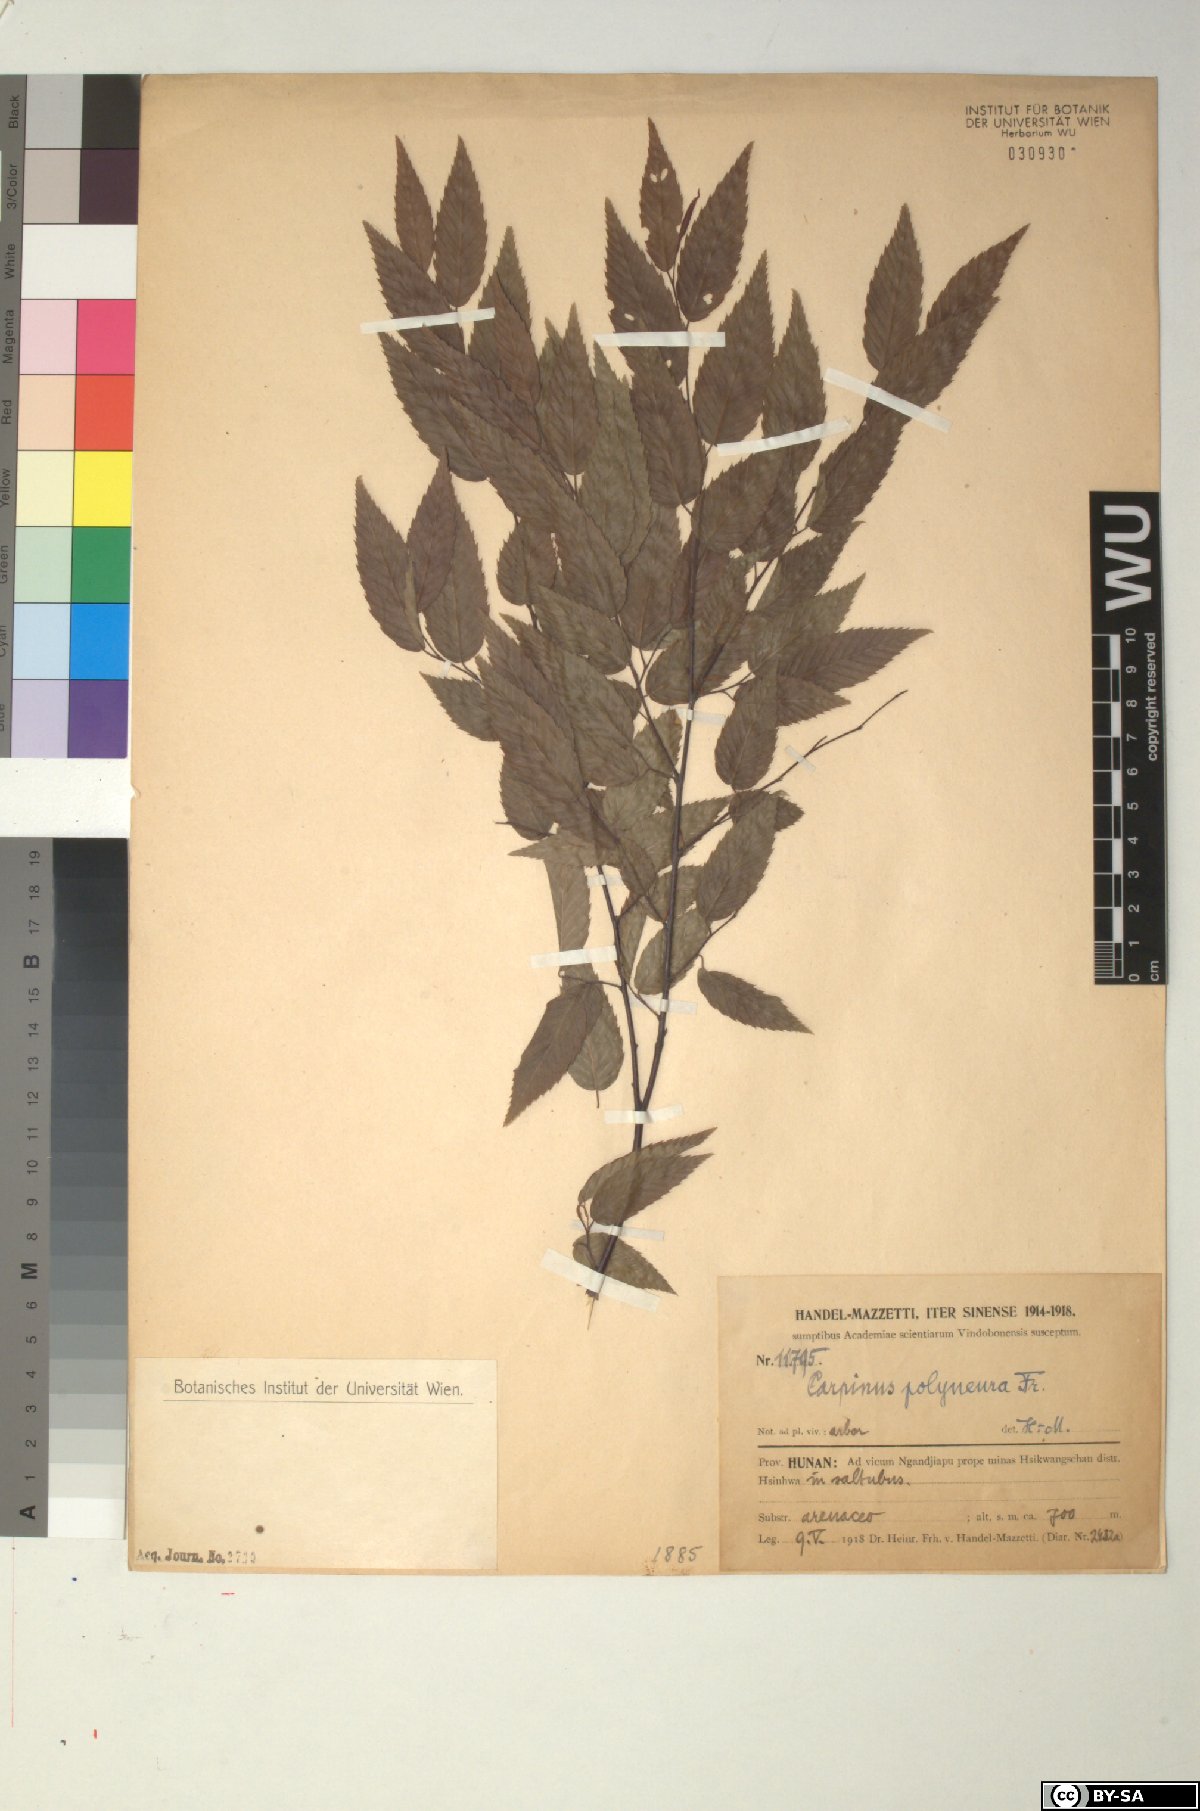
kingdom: Plantae
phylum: Tracheophyta
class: Magnoliopsida
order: Fagales
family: Betulaceae
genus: Carpinus
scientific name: Carpinus polyneura
